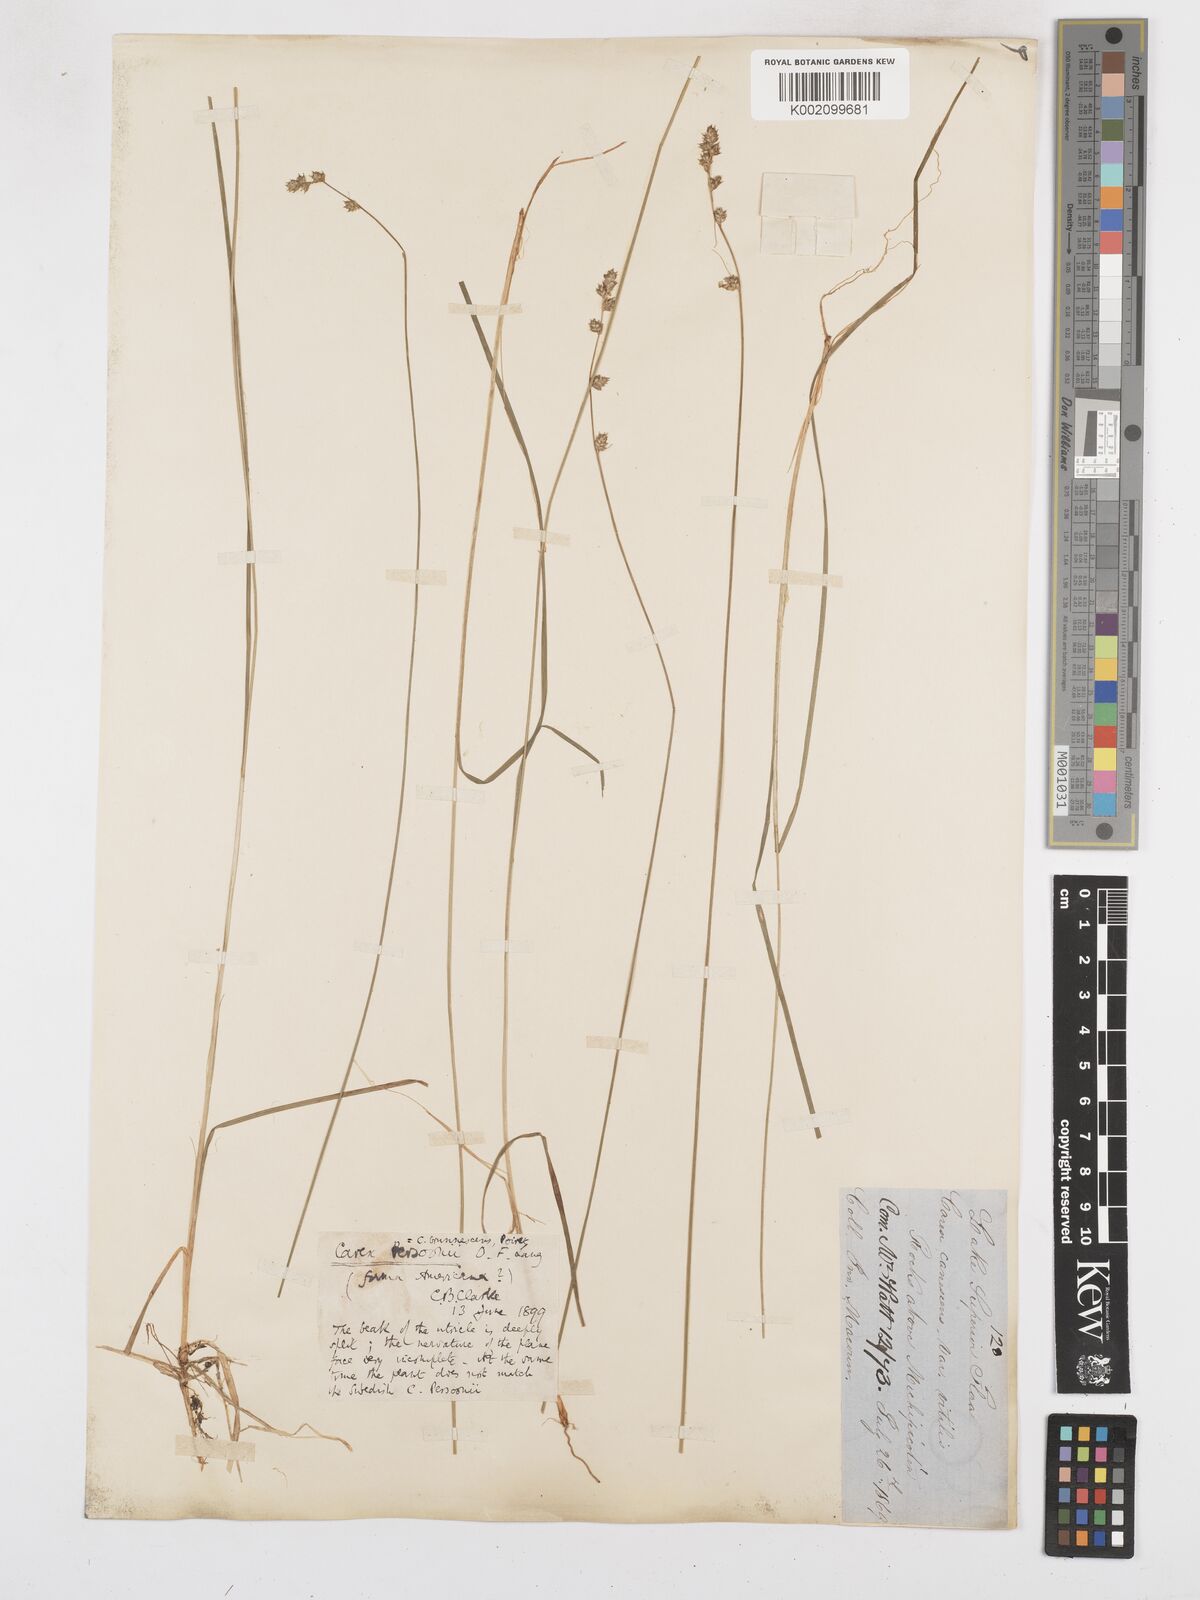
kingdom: Plantae
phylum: Tracheophyta
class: Liliopsida
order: Poales
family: Cyperaceae
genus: Carex
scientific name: Carex brunnescens
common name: Brown sedge
